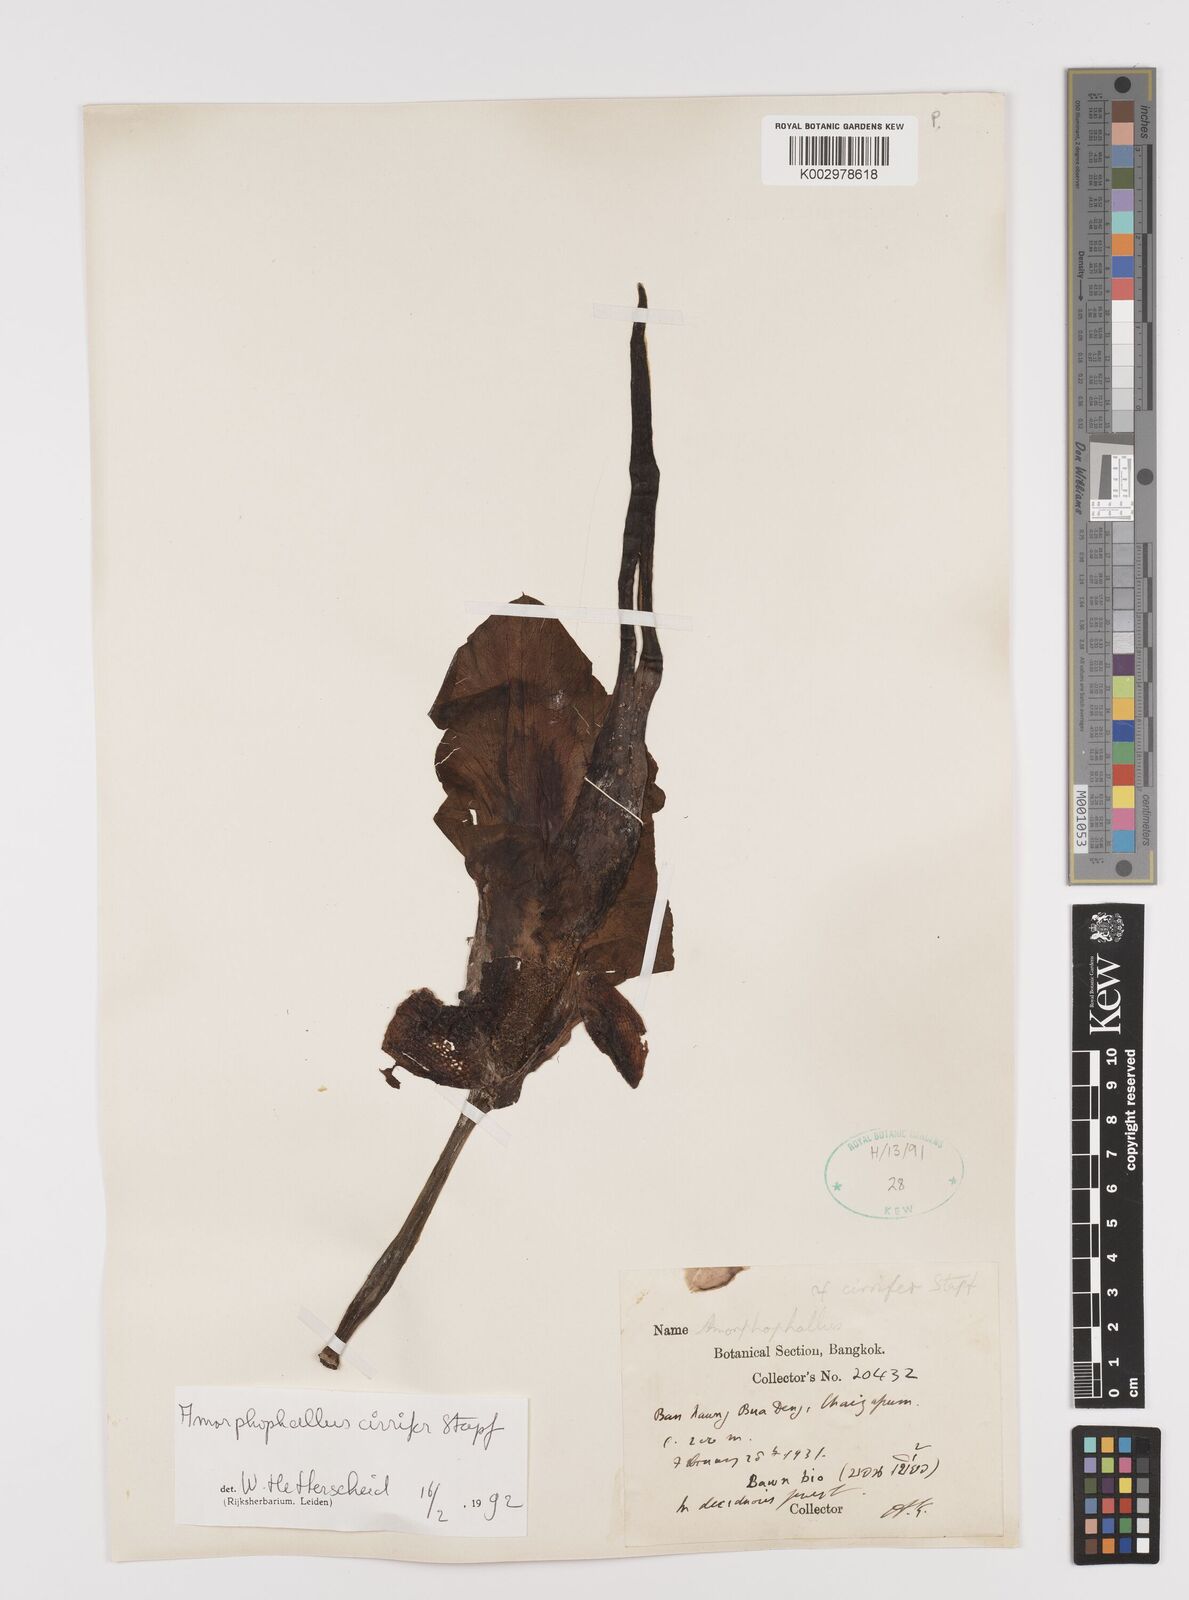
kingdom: Plantae
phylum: Tracheophyta
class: Liliopsida
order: Alismatales
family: Araceae
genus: Amorphophallus
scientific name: Amorphophallus cirrifer
